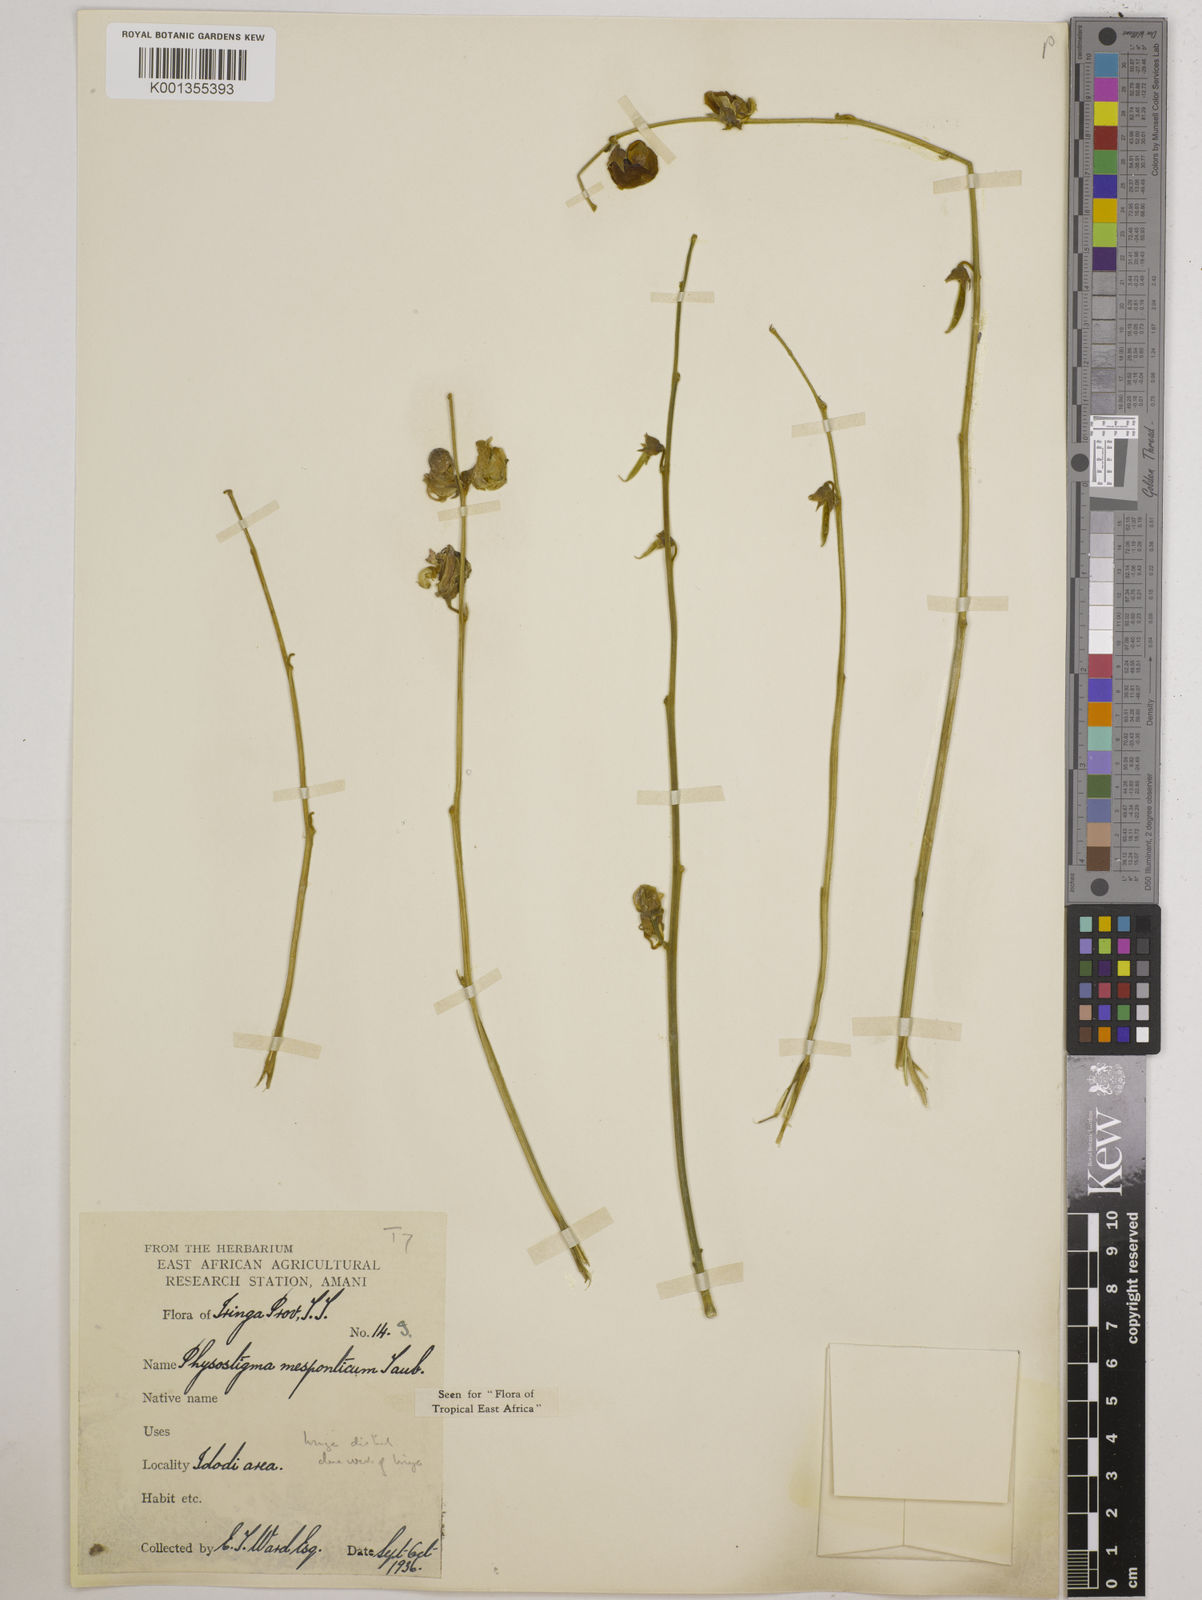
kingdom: Plantae
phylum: Tracheophyta
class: Magnoliopsida
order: Fabales
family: Fabaceae
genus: Physostigma
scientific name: Physostigma mesoponticum
